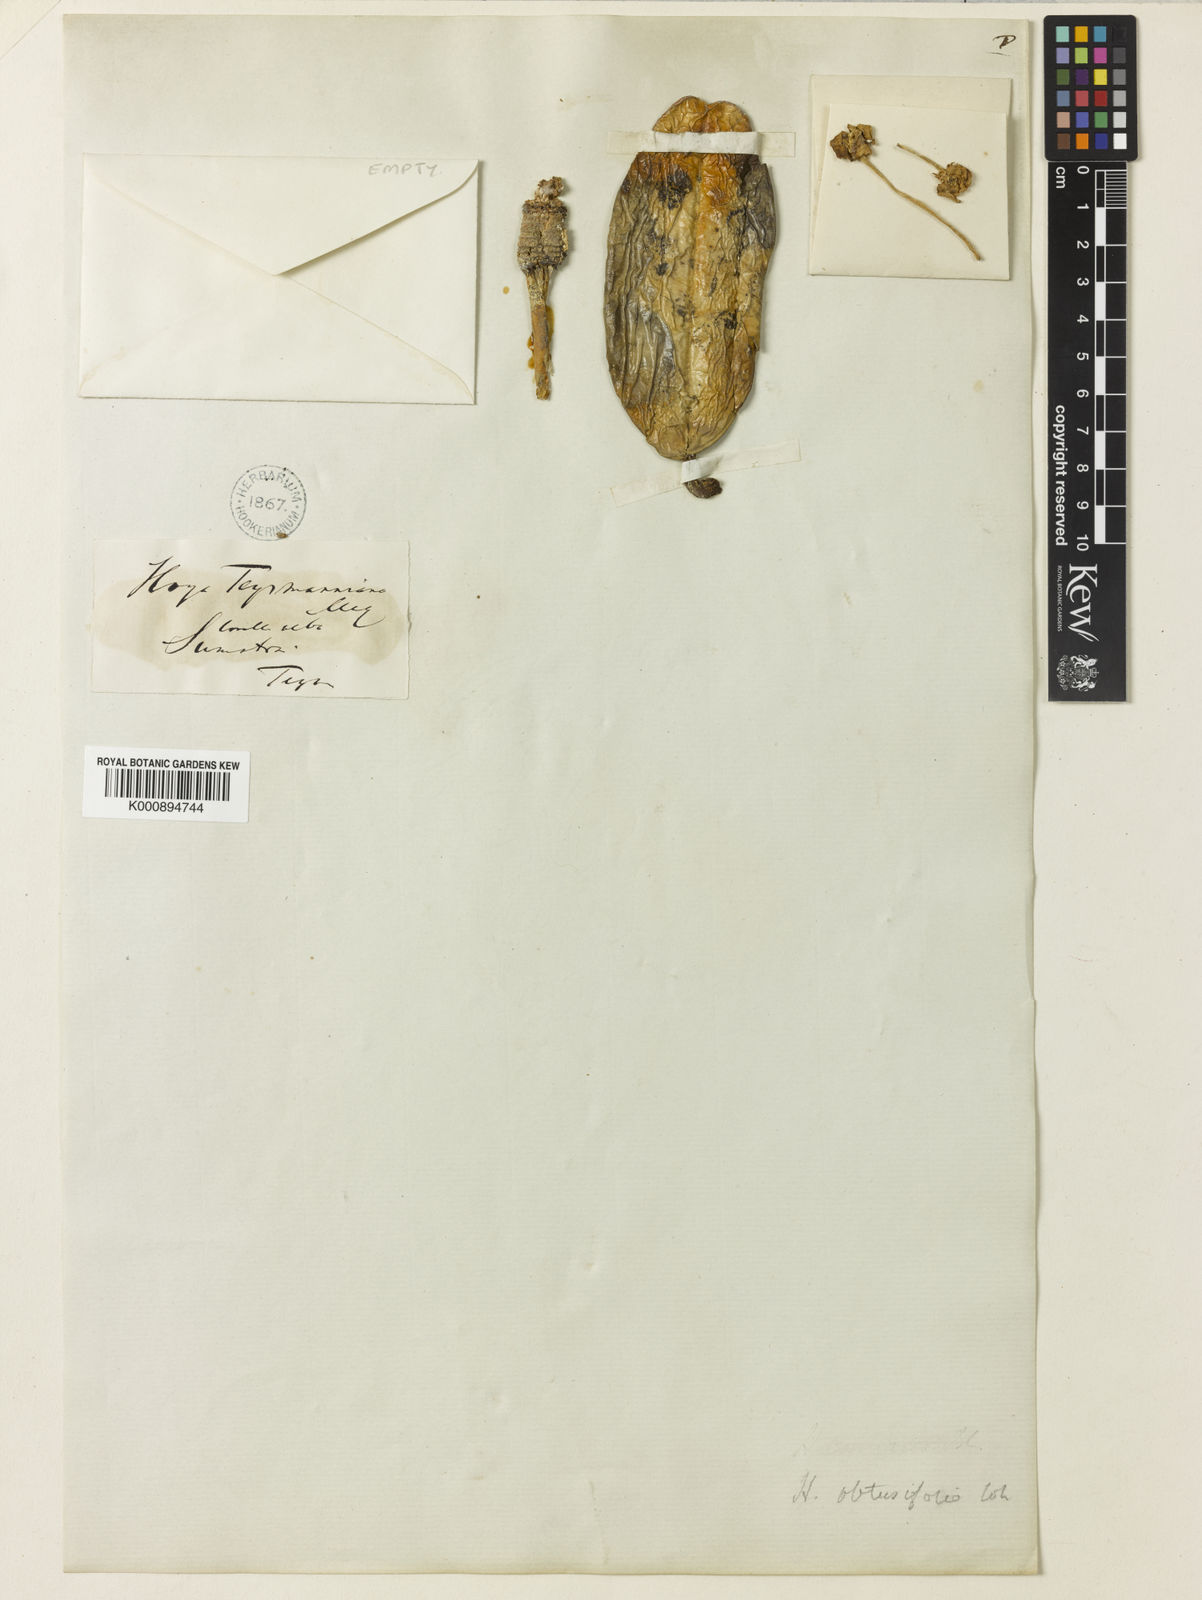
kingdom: Plantae
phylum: Tracheophyta
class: Magnoliopsida
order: Gentianales
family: Apocynaceae
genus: Hoya
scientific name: Hoya obtusifolia
